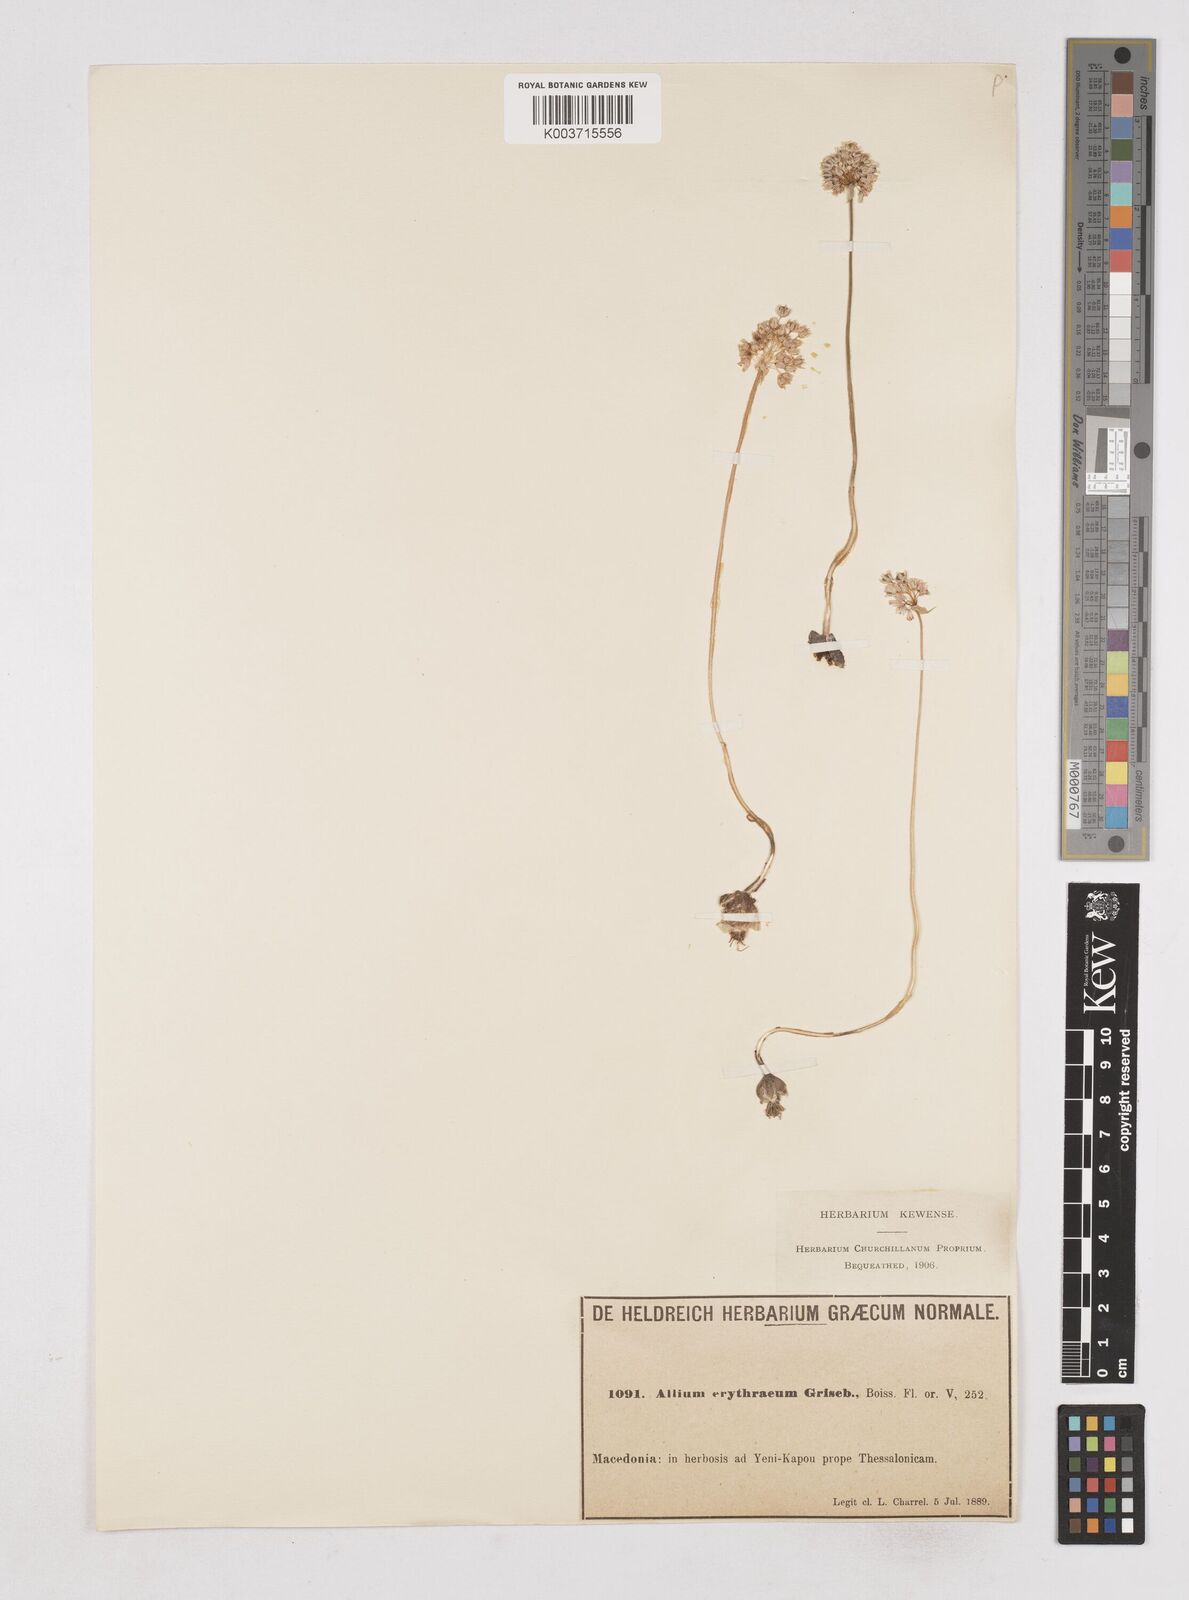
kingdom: Plantae
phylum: Tracheophyta
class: Liliopsida
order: Asparagales
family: Amaryllidaceae
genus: Allium
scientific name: Allium
